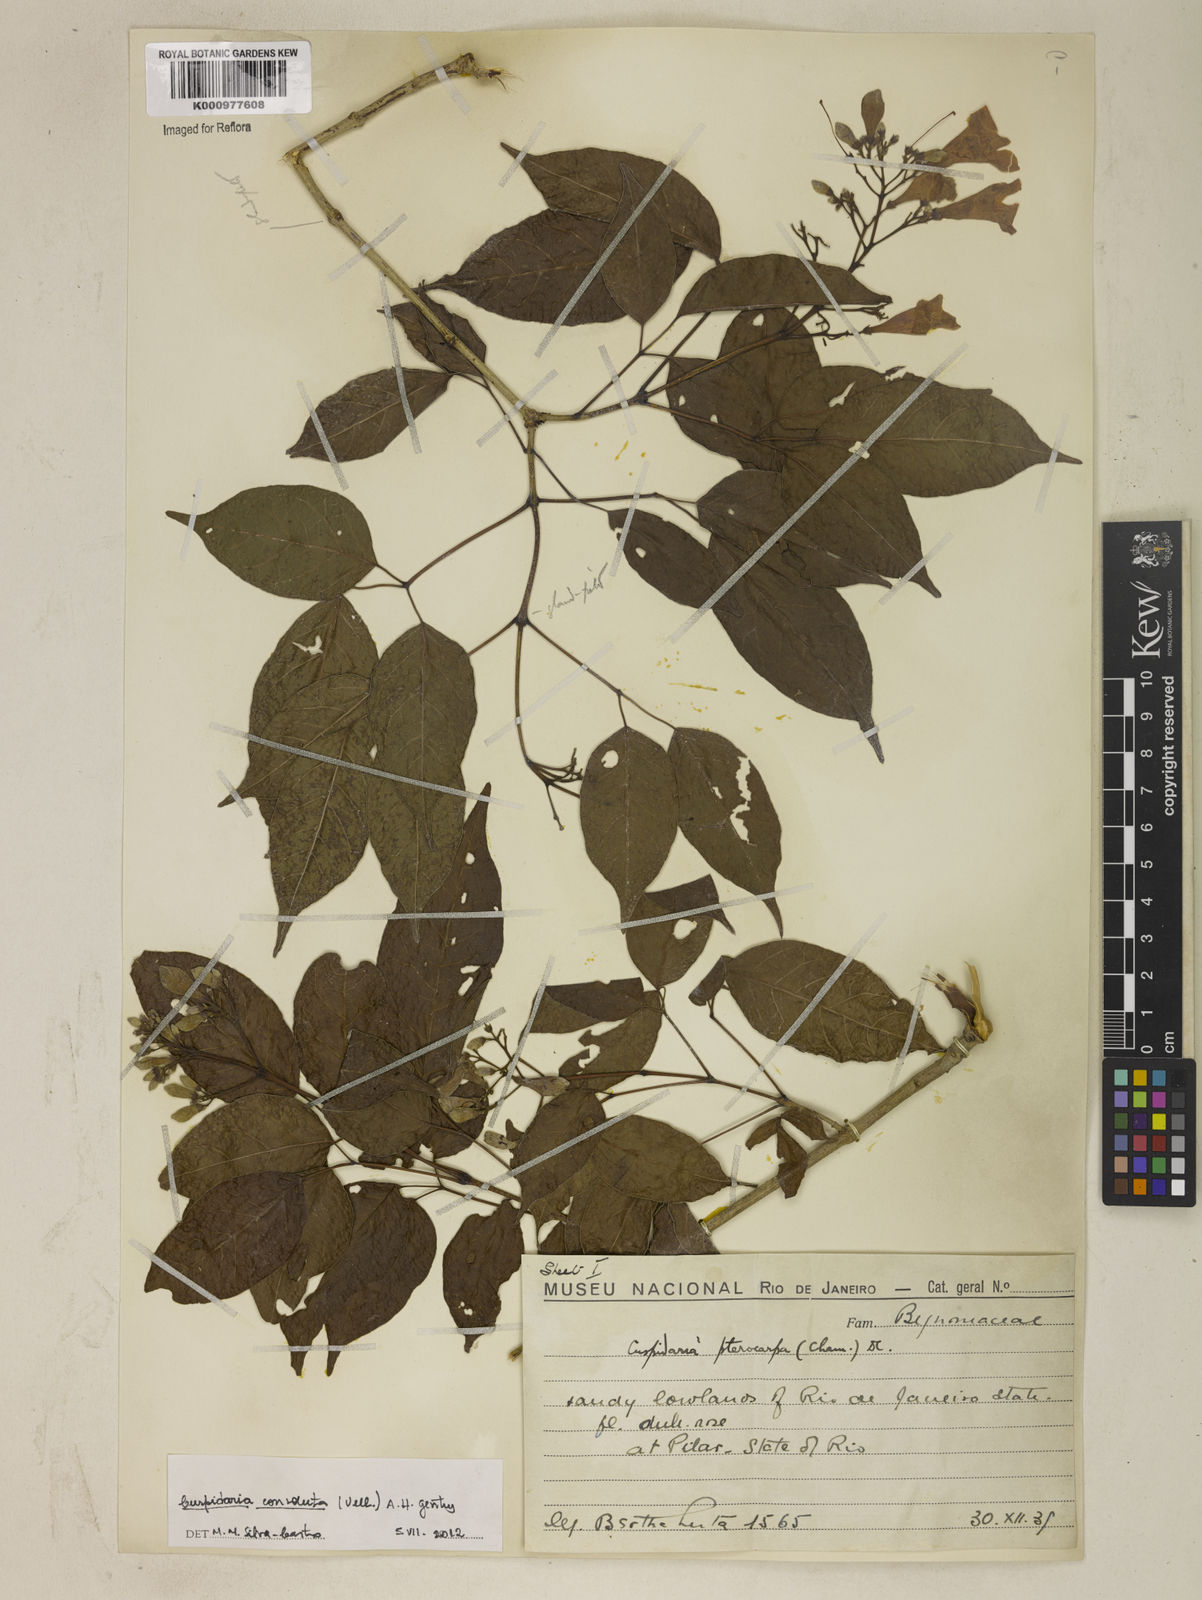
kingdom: Plantae
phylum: Tracheophyta
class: Magnoliopsida
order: Lamiales
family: Bignoniaceae
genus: Cuspidaria
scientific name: Cuspidaria convoluta
